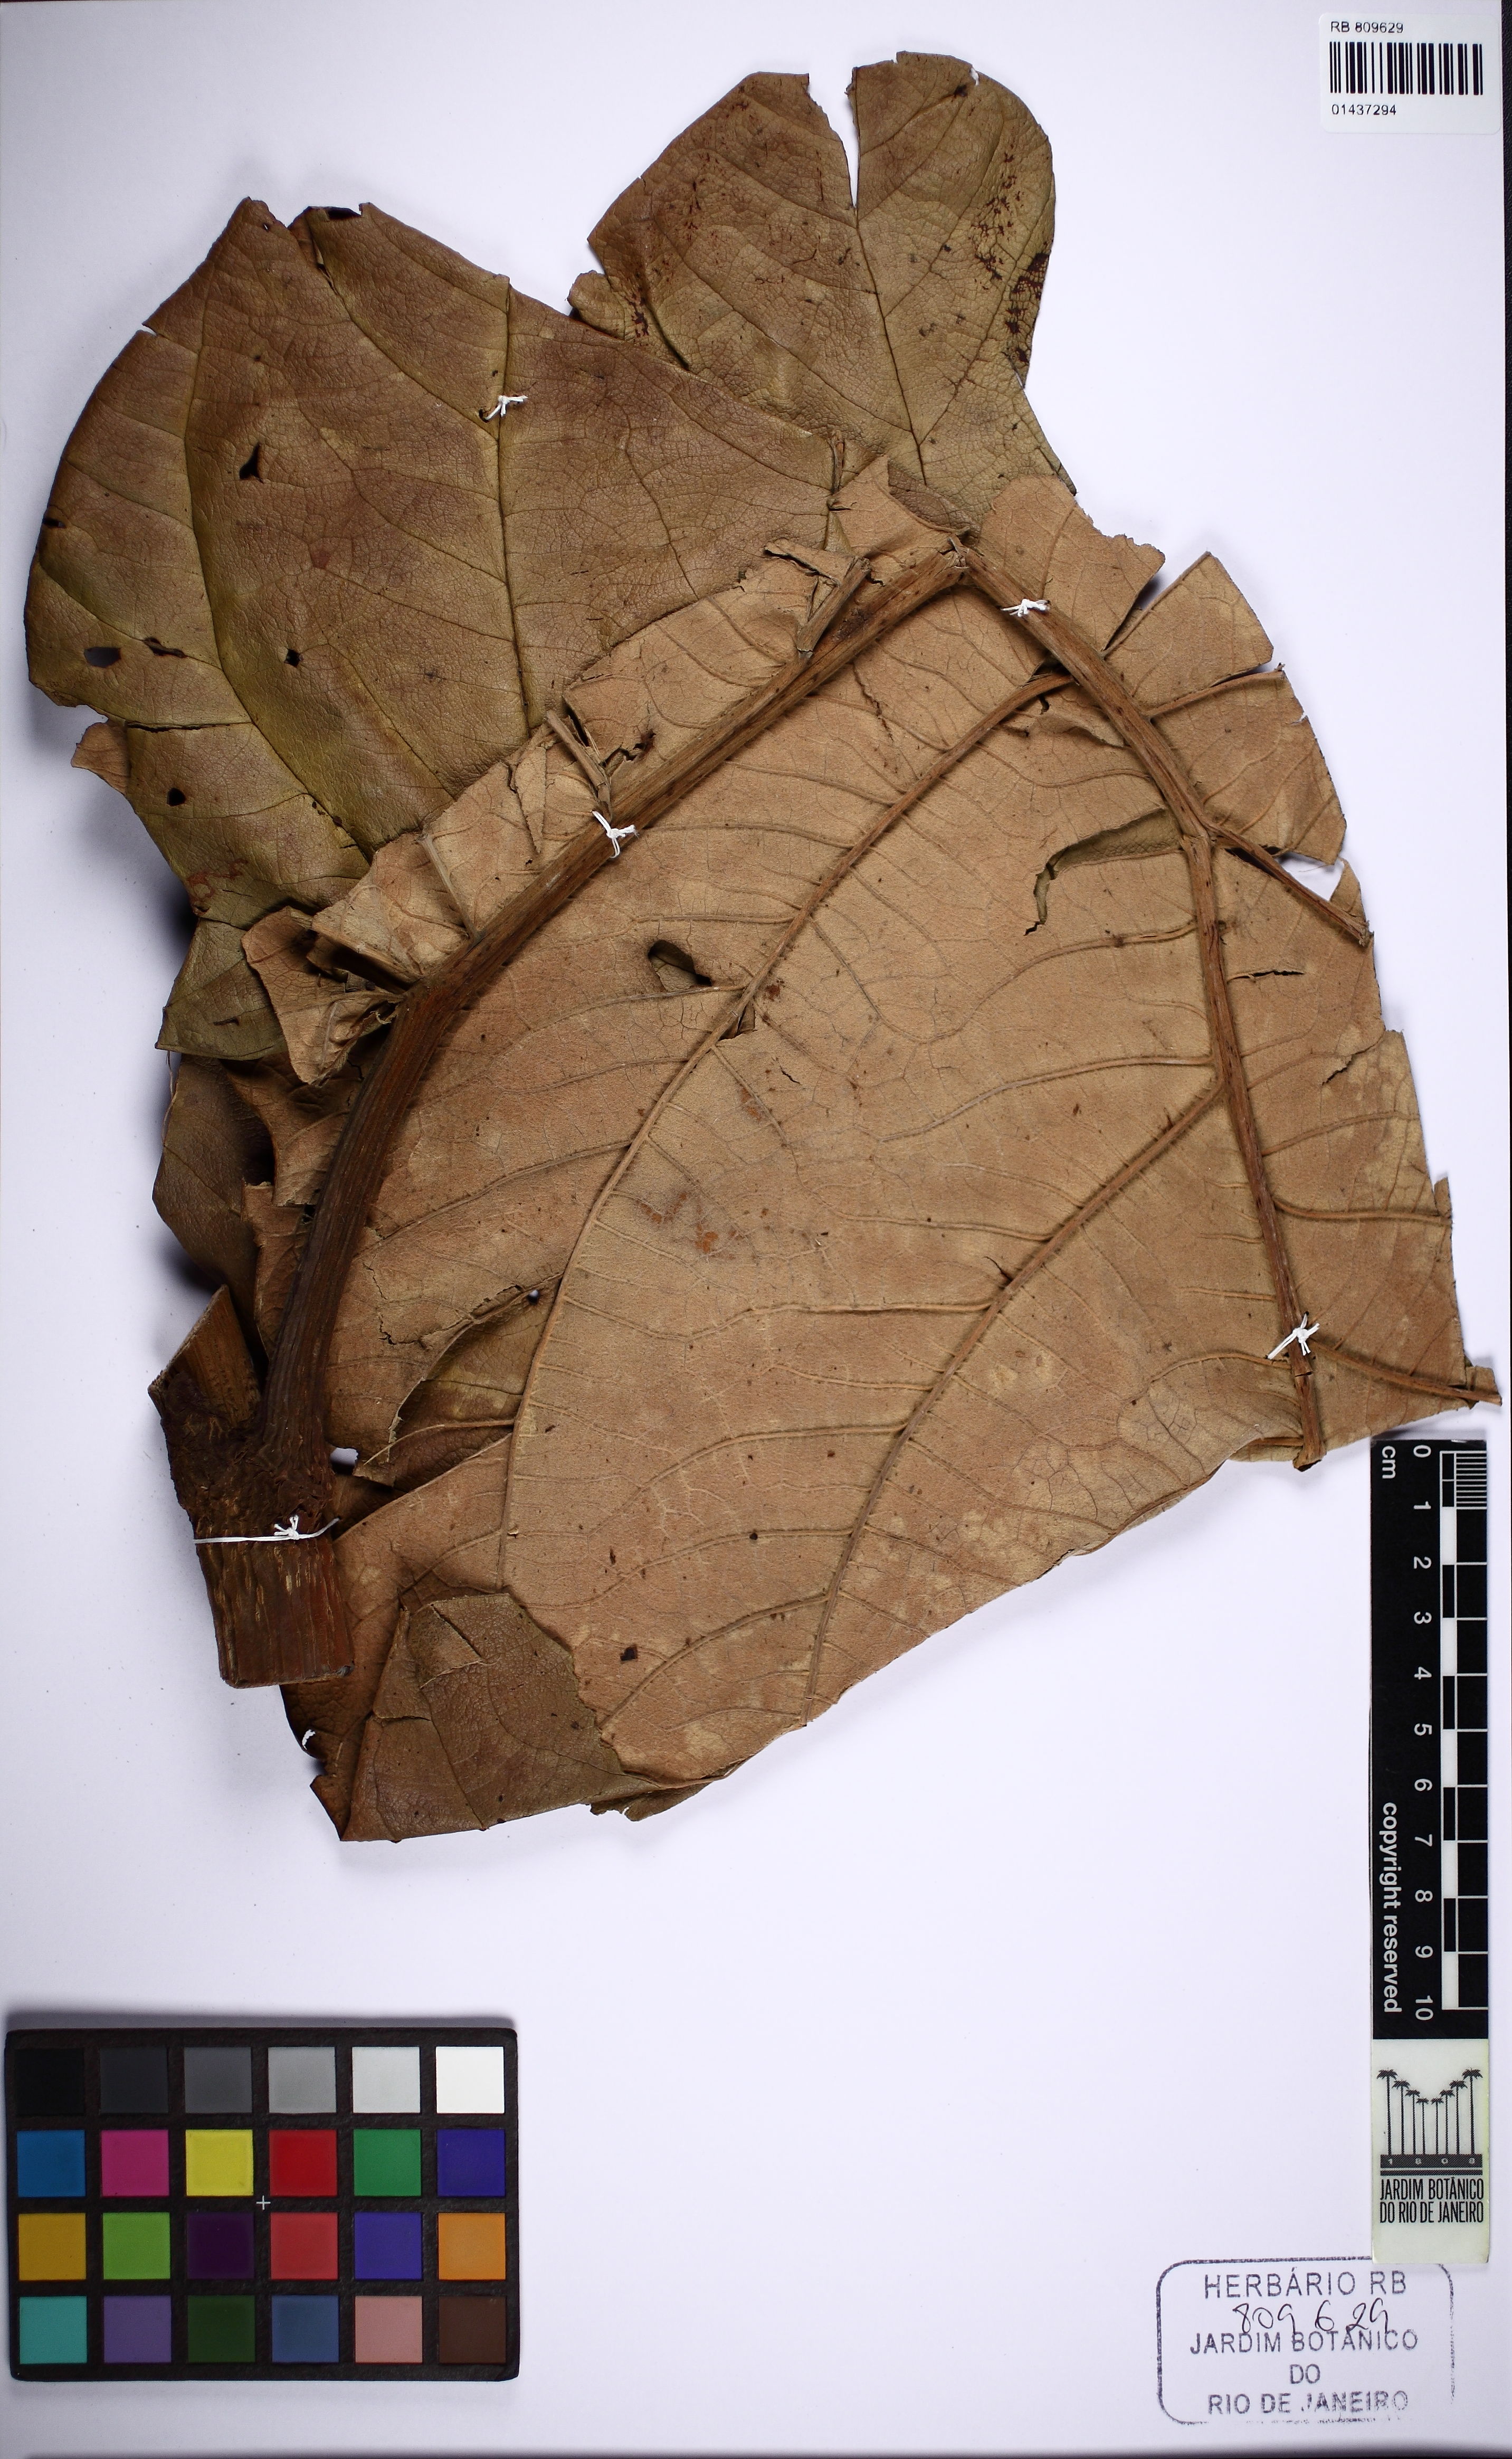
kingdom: Plantae
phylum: Tracheophyta
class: Magnoliopsida
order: Caryophyllales
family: Polygonaceae
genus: Coccoloba
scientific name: Coccoloba
